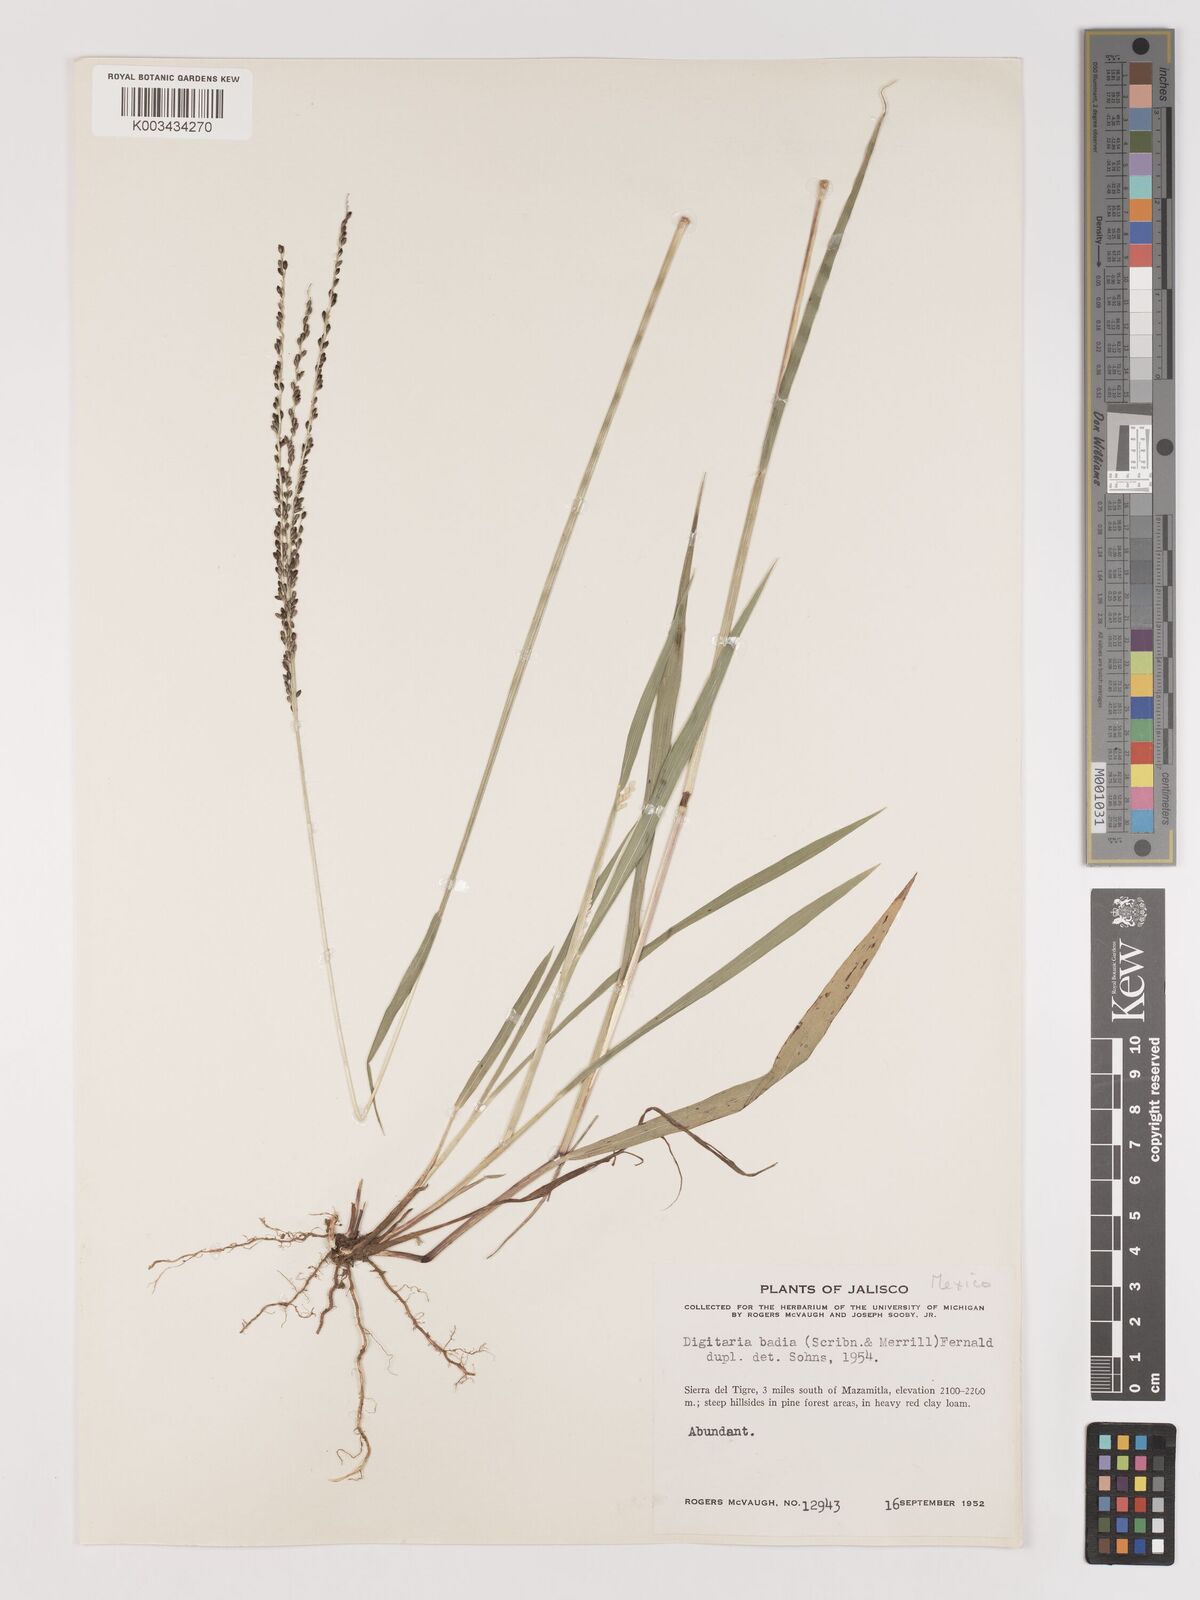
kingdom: Plantae
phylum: Tracheophyta
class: Liliopsida
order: Poales
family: Poaceae
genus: Digitaria
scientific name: Digitaria badia
